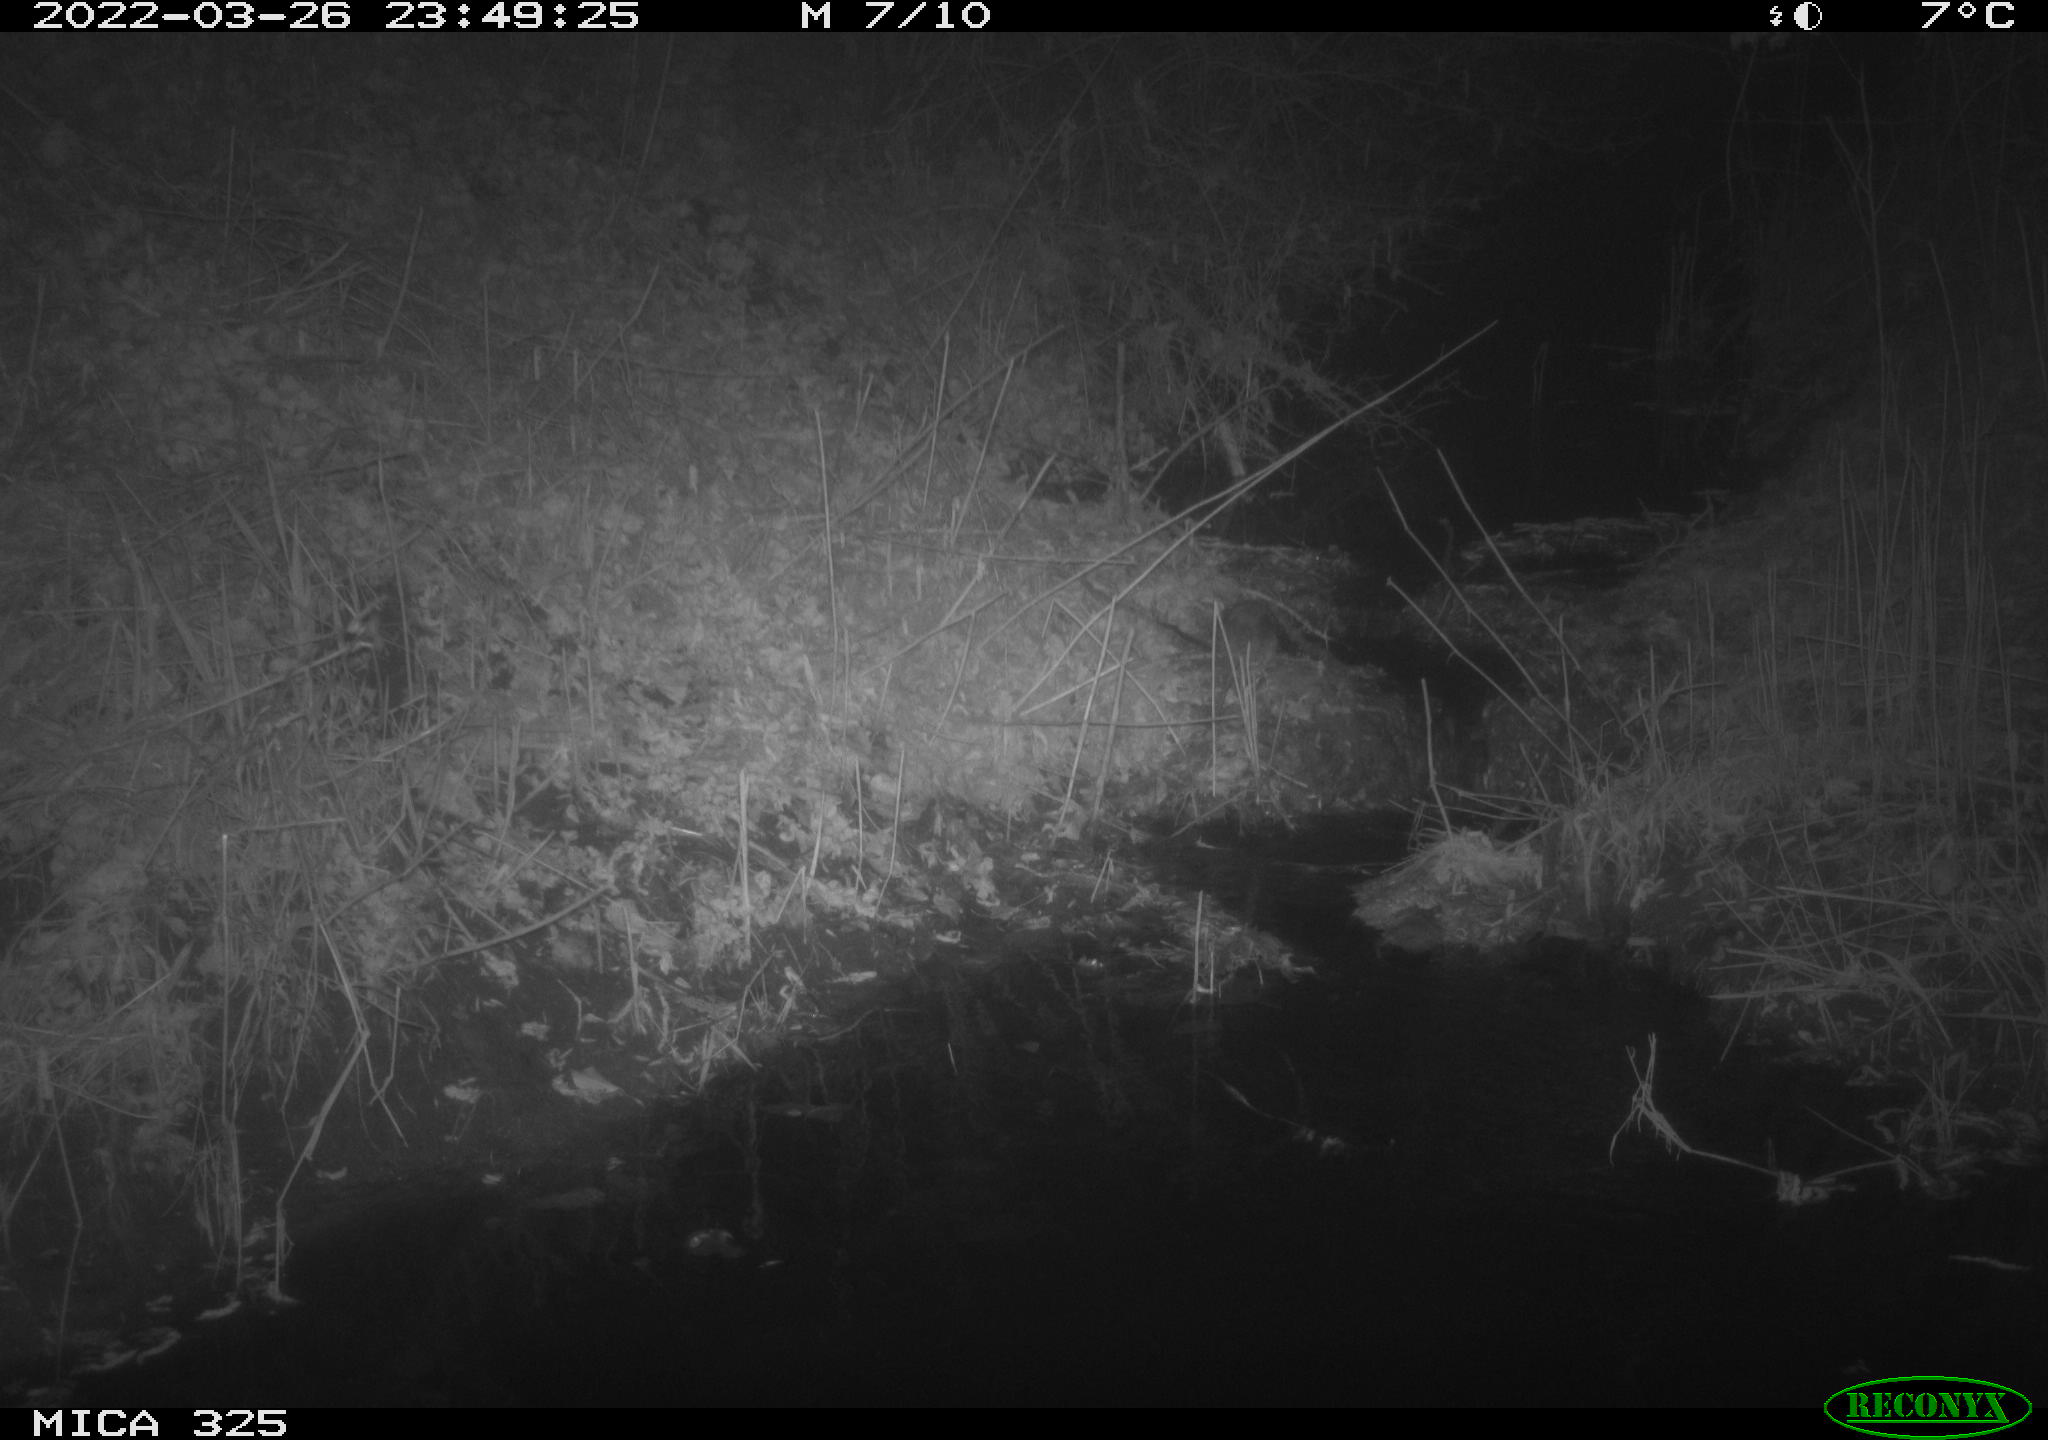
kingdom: Animalia
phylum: Chordata
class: Mammalia
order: Rodentia
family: Muridae
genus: Rattus
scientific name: Rattus norvegicus
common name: Brown rat
